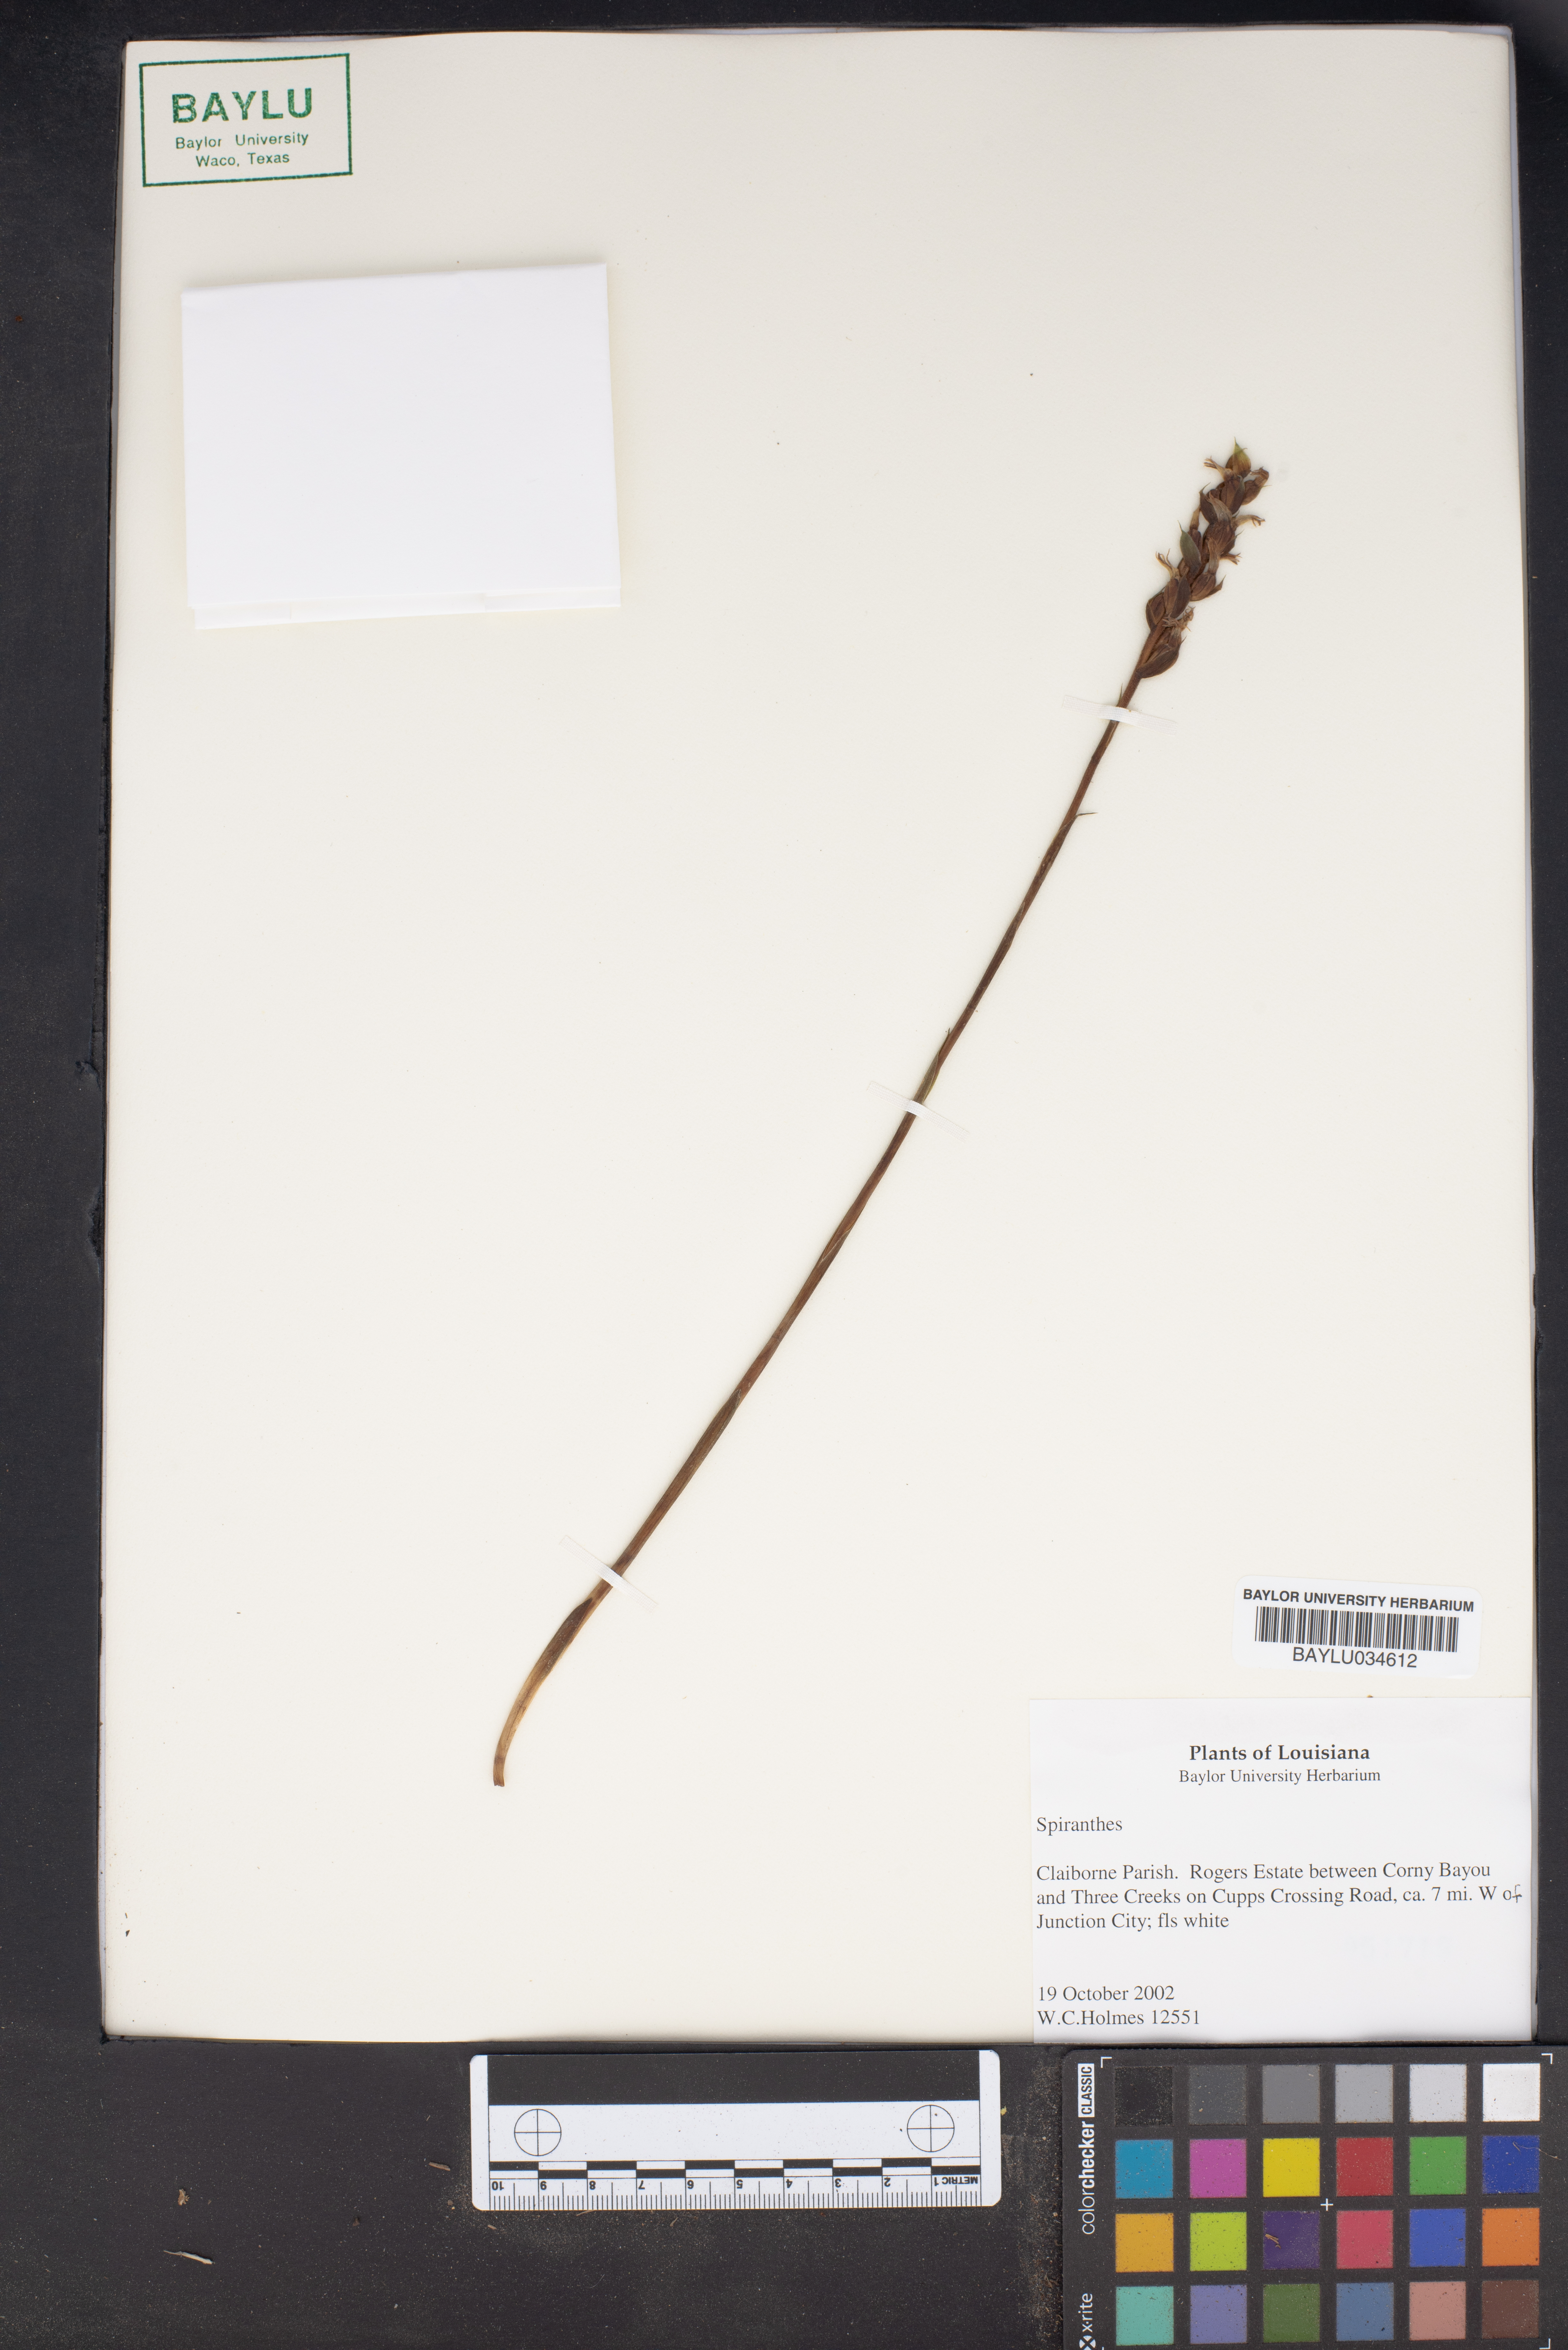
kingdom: Plantae
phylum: Tracheophyta
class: Liliopsida
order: Asparagales
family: Orchidaceae
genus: Spiranthes
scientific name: Spiranthes
